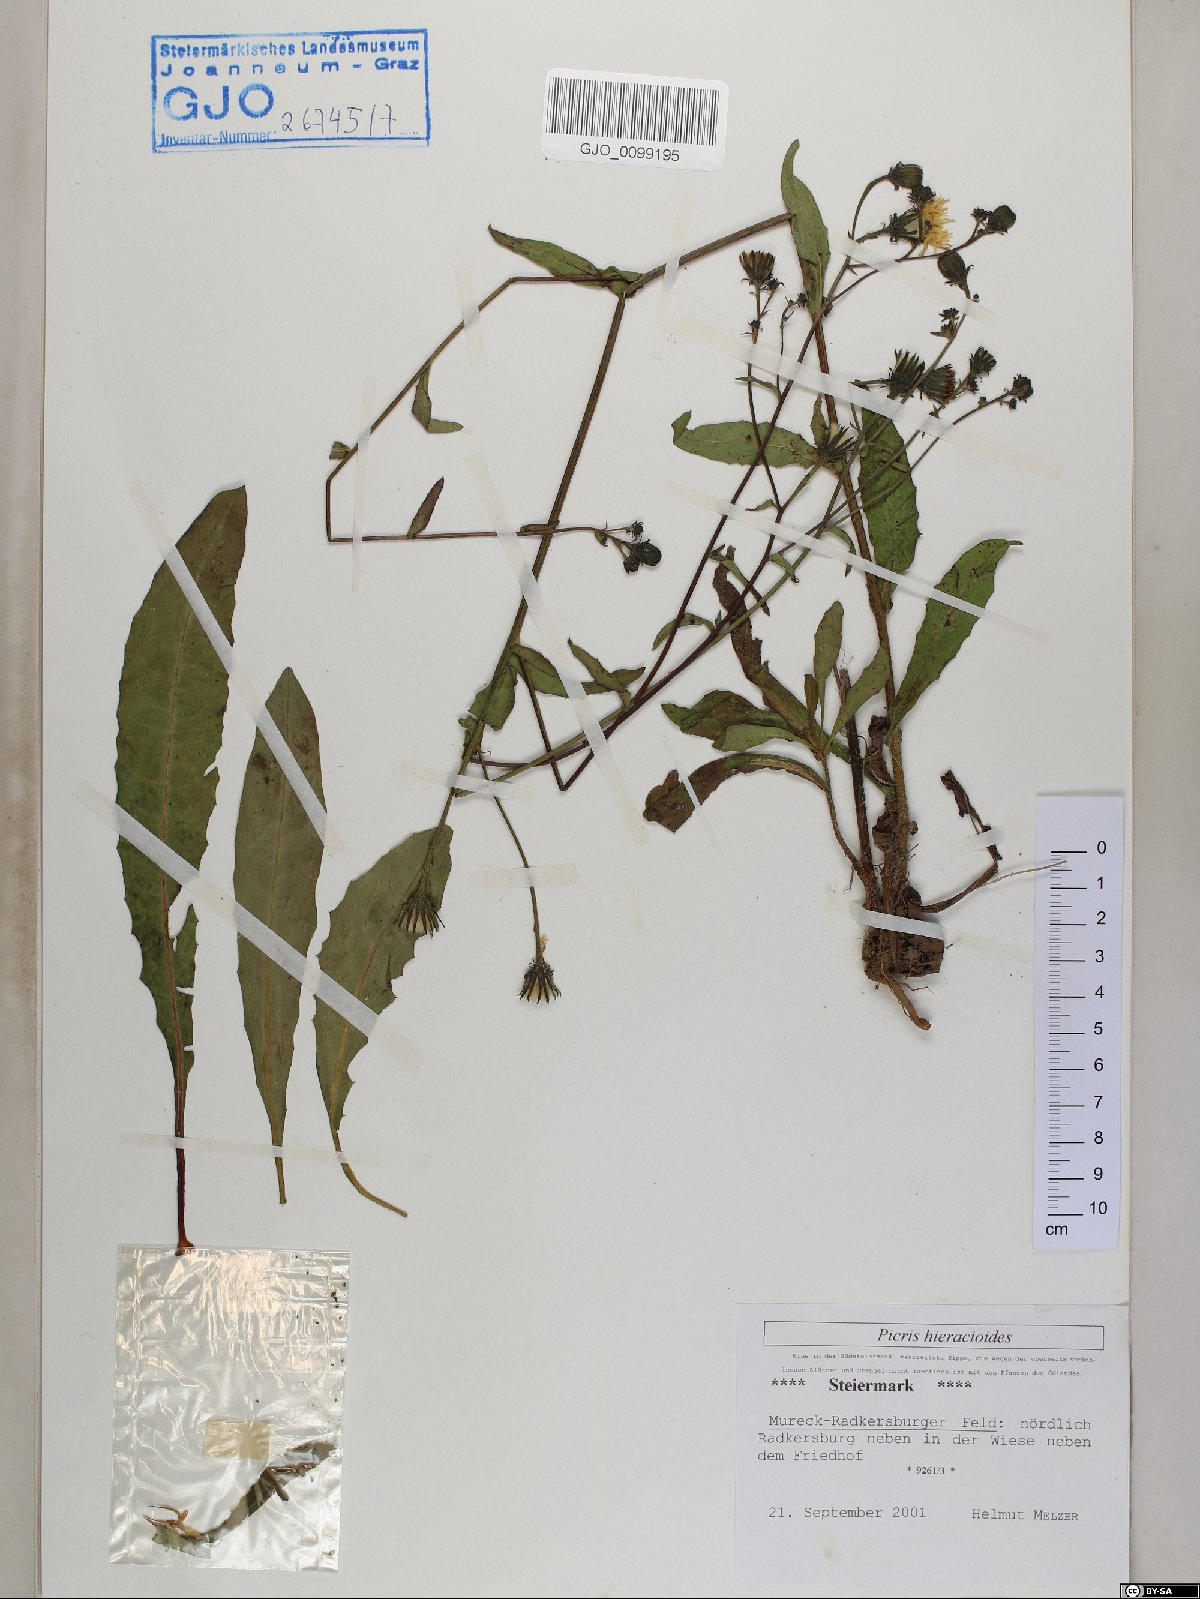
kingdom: Plantae
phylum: Tracheophyta
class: Magnoliopsida
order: Asterales
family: Asteraceae
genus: Picris
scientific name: Picris hieracioides
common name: Hawkweed oxtongue
